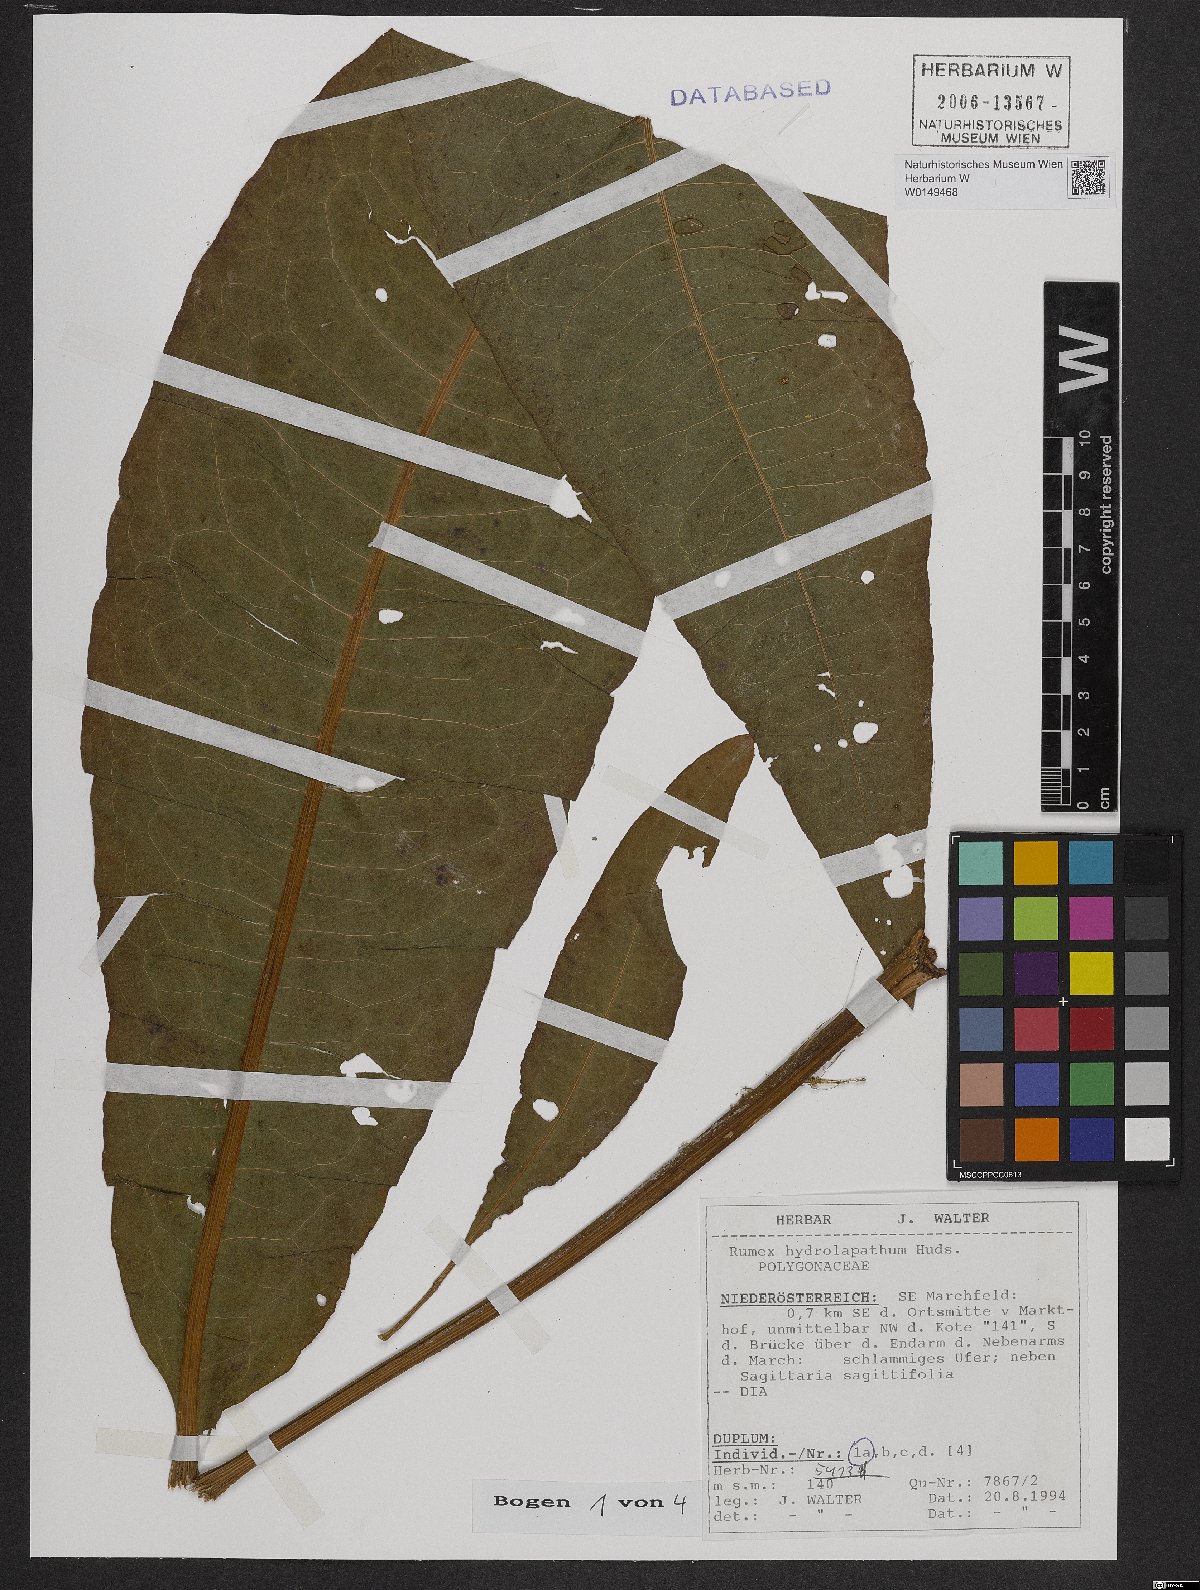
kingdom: Plantae
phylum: Tracheophyta
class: Magnoliopsida
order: Caryophyllales
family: Polygonaceae
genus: Rumex
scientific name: Rumex hydrolapathum
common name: Water dock
